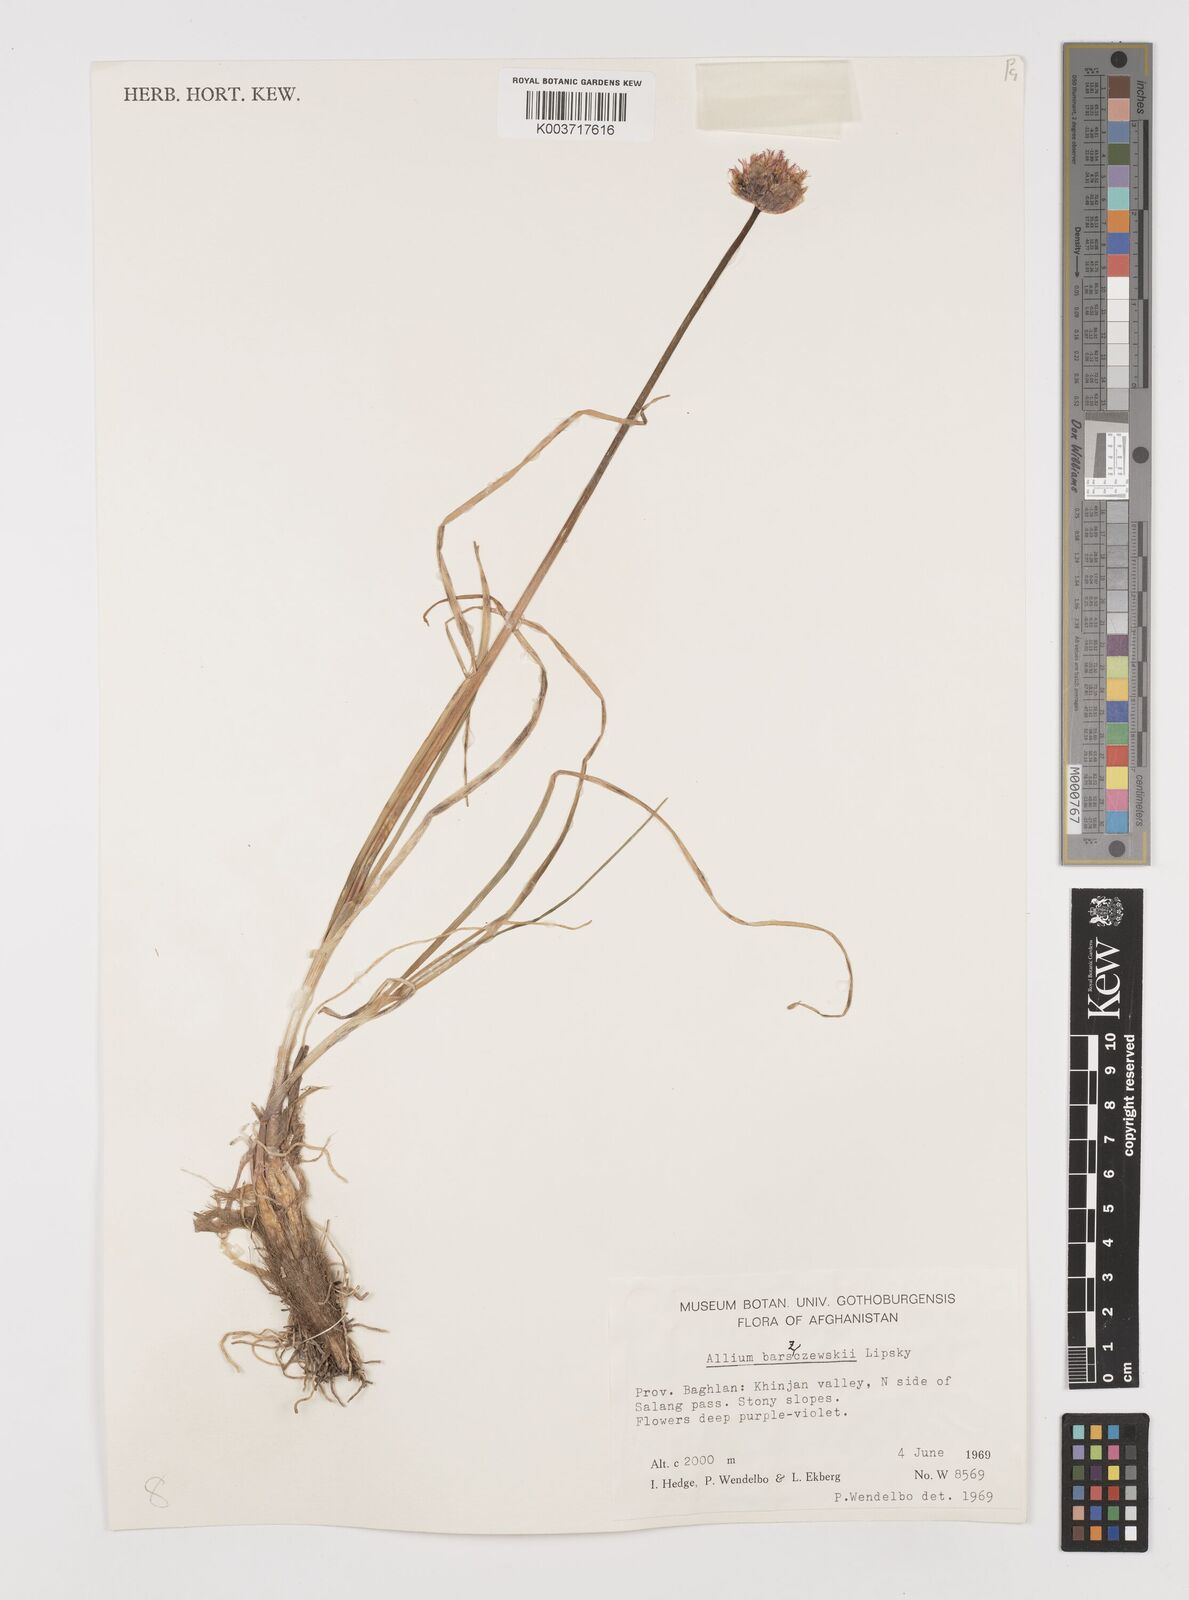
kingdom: Plantae
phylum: Tracheophyta
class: Liliopsida
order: Asparagales
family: Amaryllidaceae
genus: Allium
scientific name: Allium barsczewskii
